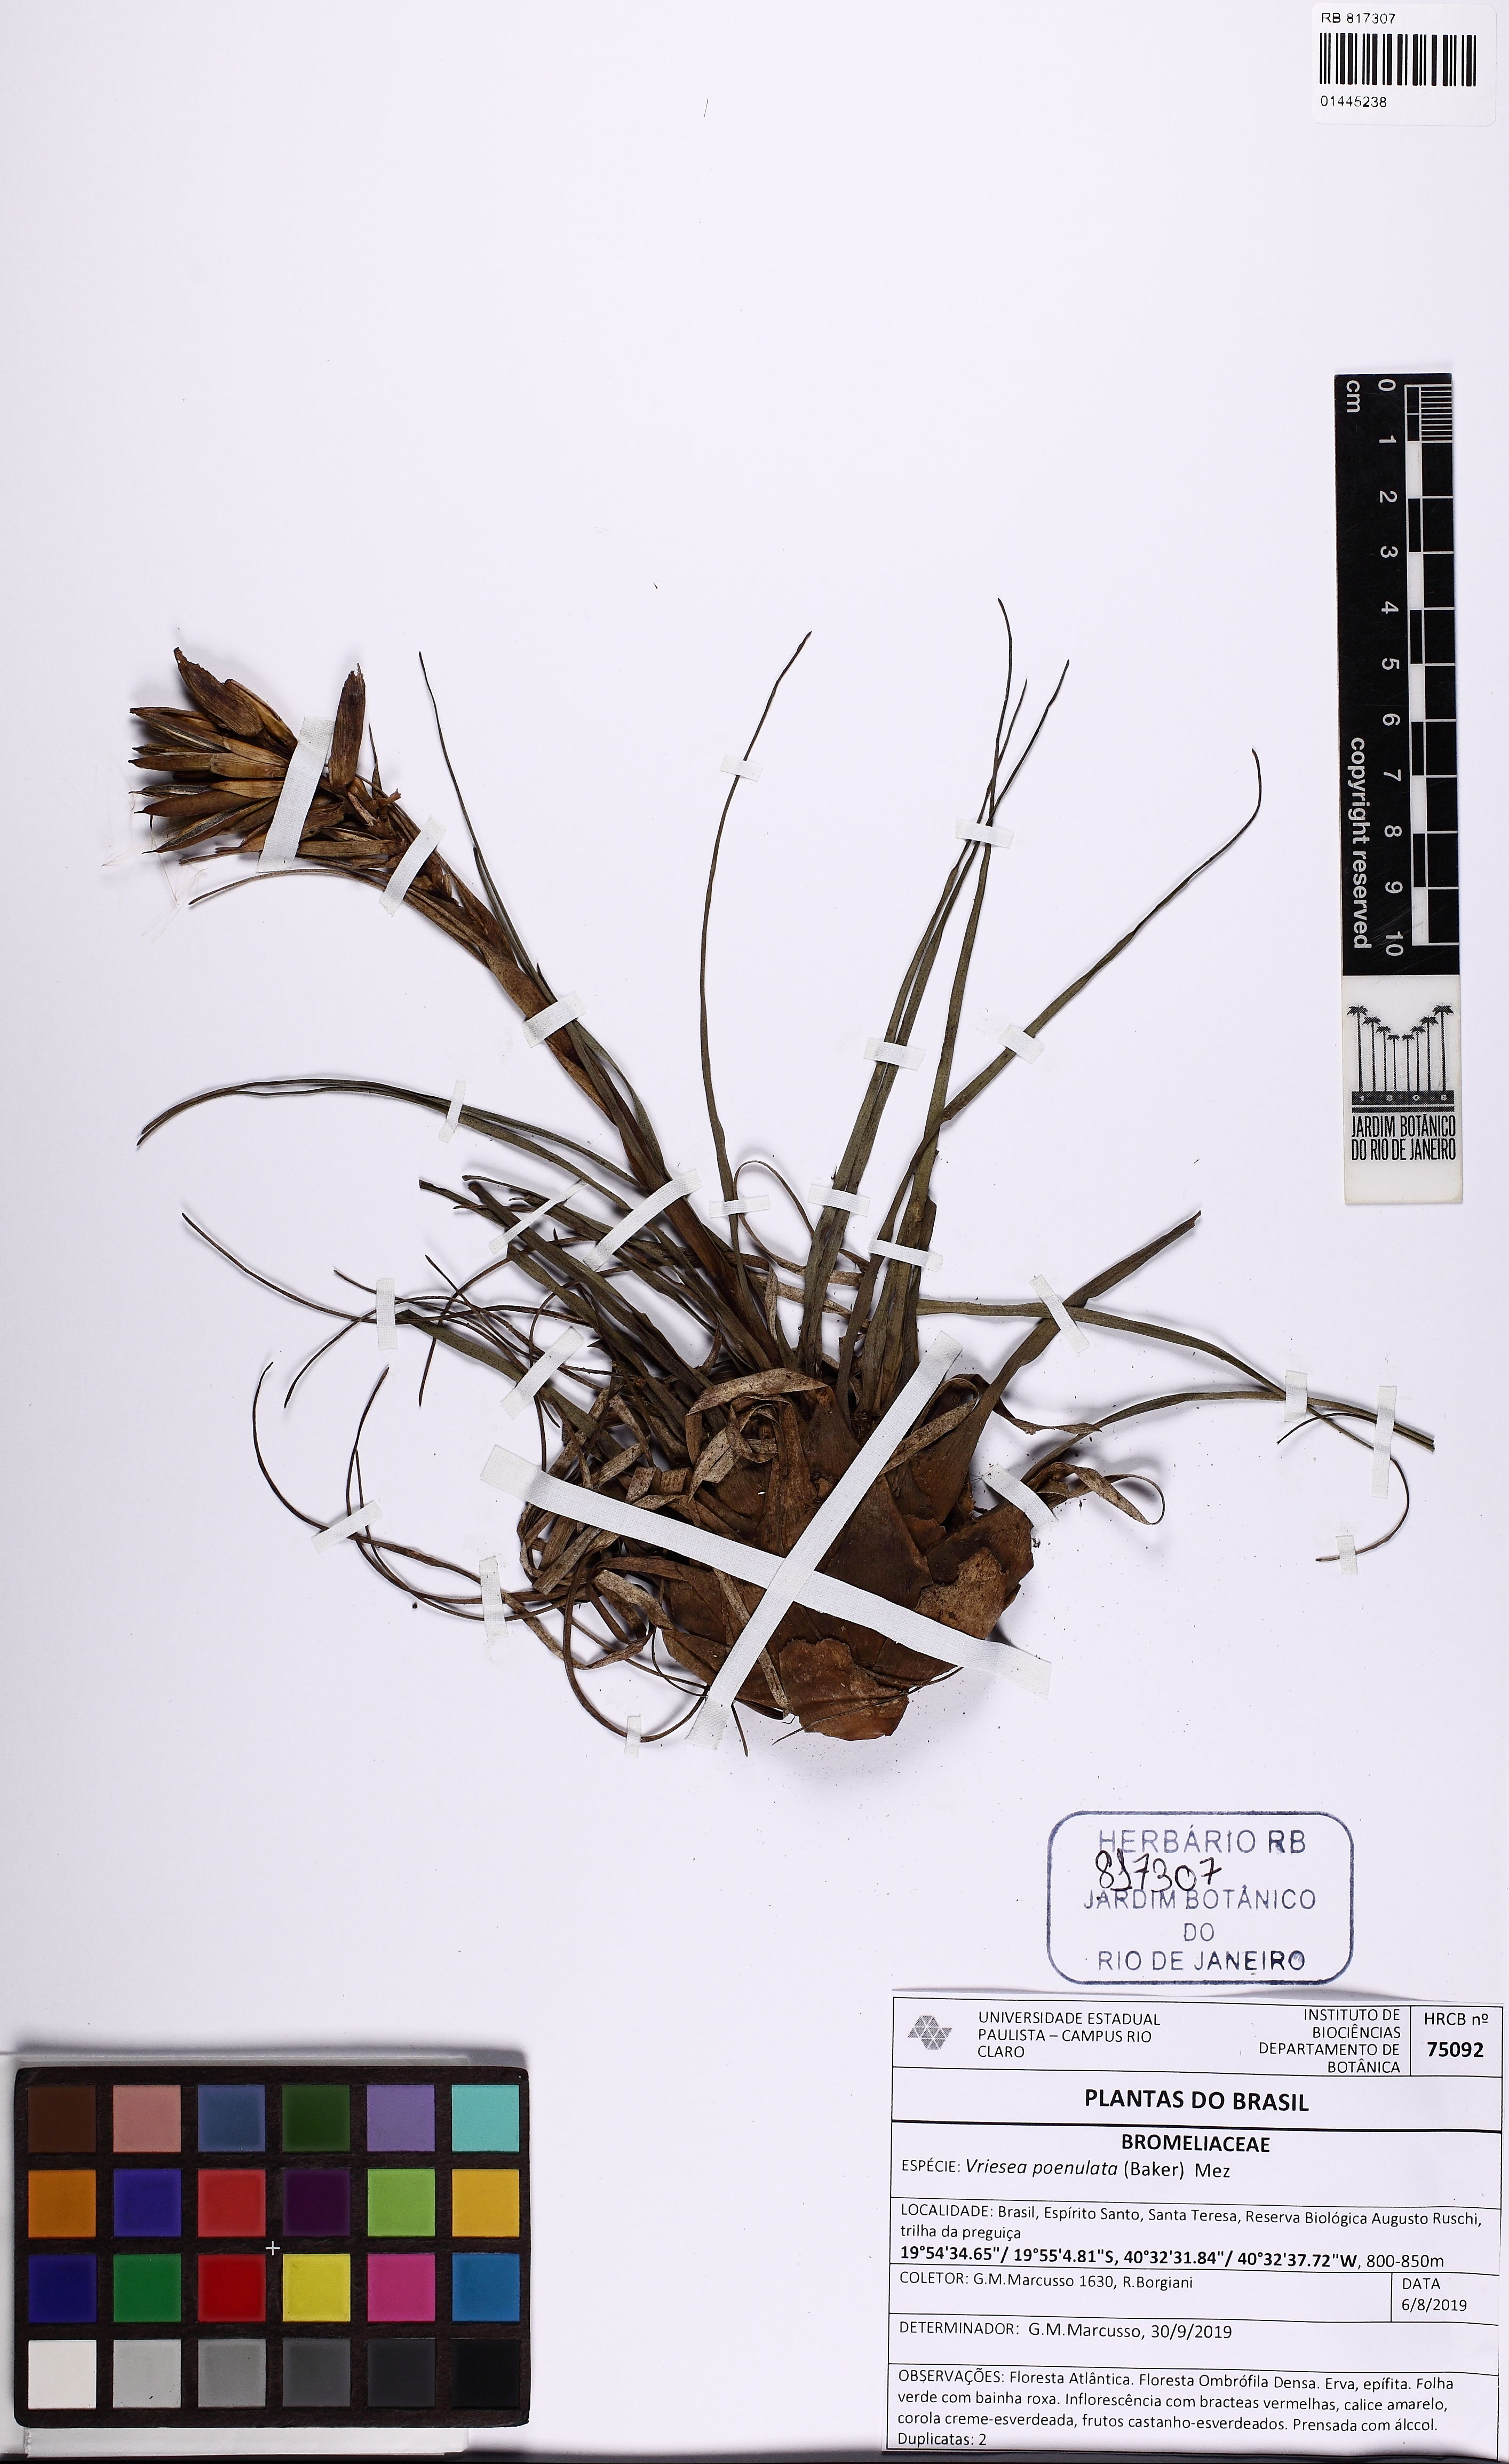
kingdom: Plantae
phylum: Tracheophyta
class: Liliopsida
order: Poales
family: Bromeliaceae
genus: Vriesea
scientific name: Vriesea poenulata
